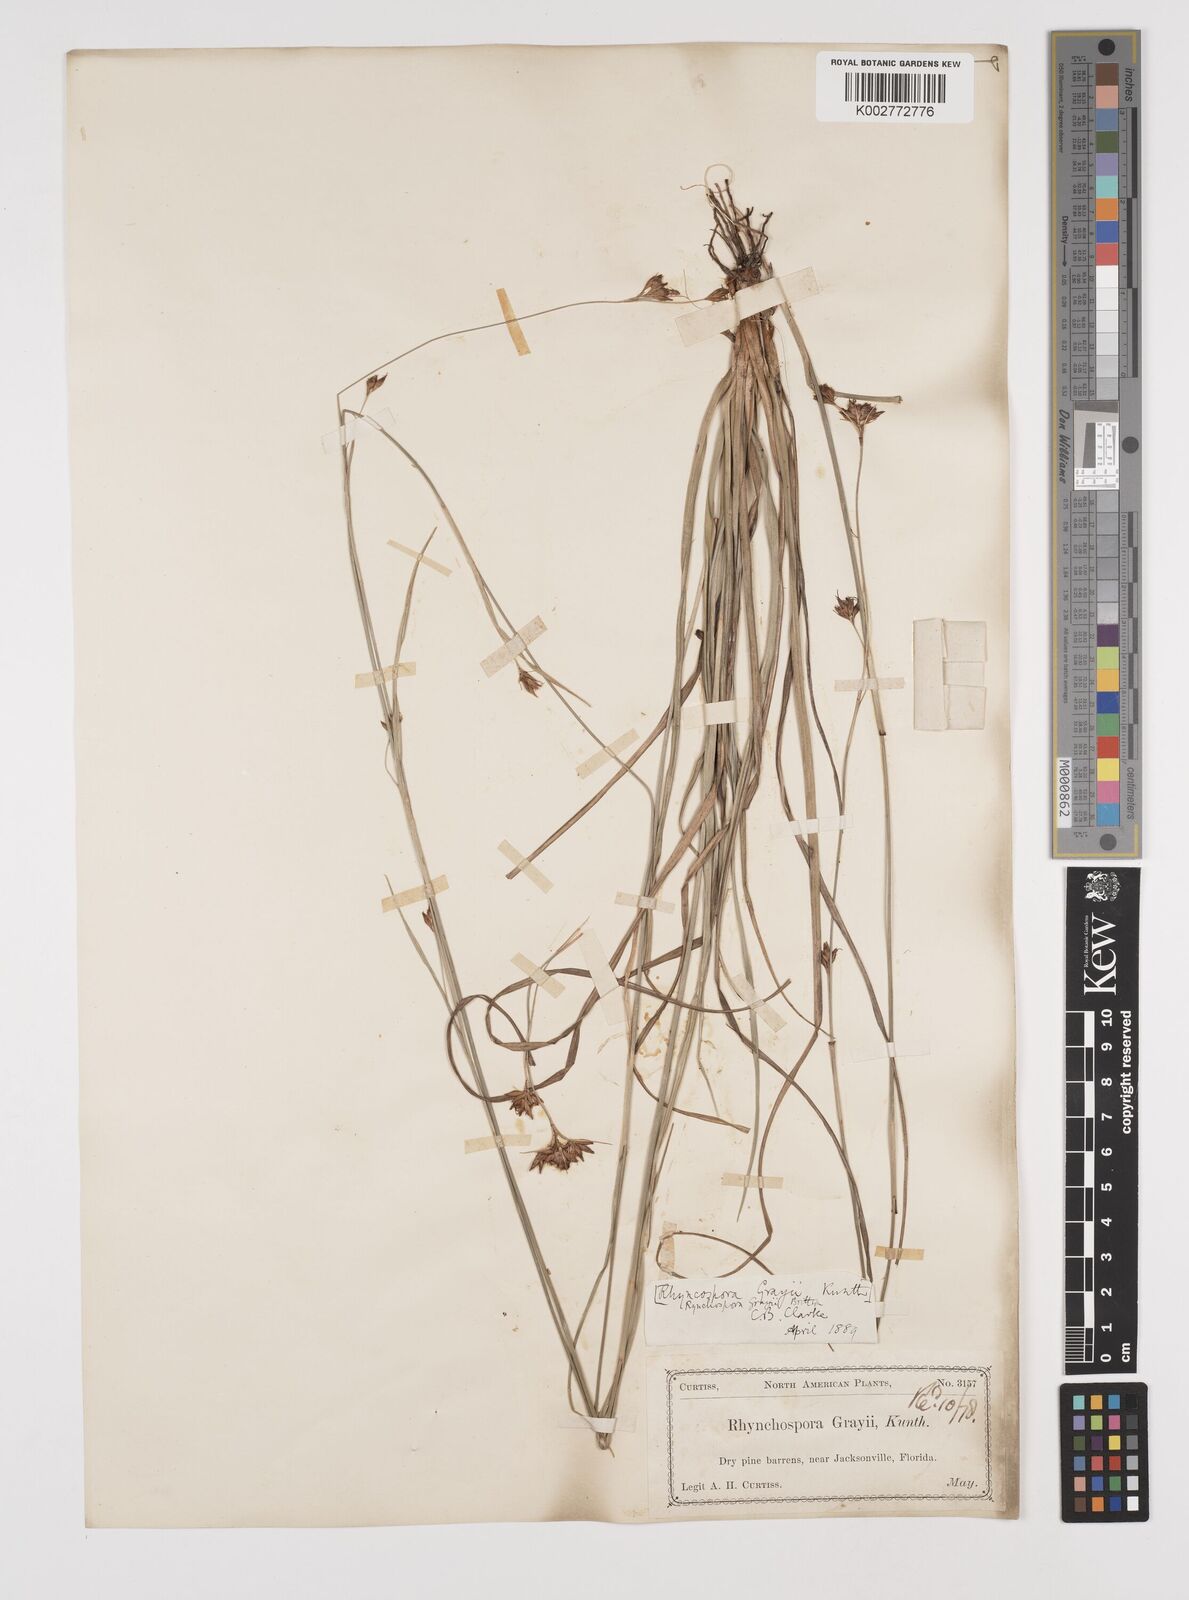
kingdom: Plantae
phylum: Tracheophyta
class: Liliopsida
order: Poales
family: Cyperaceae
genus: Rhynchospora
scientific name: Rhynchospora grayi
